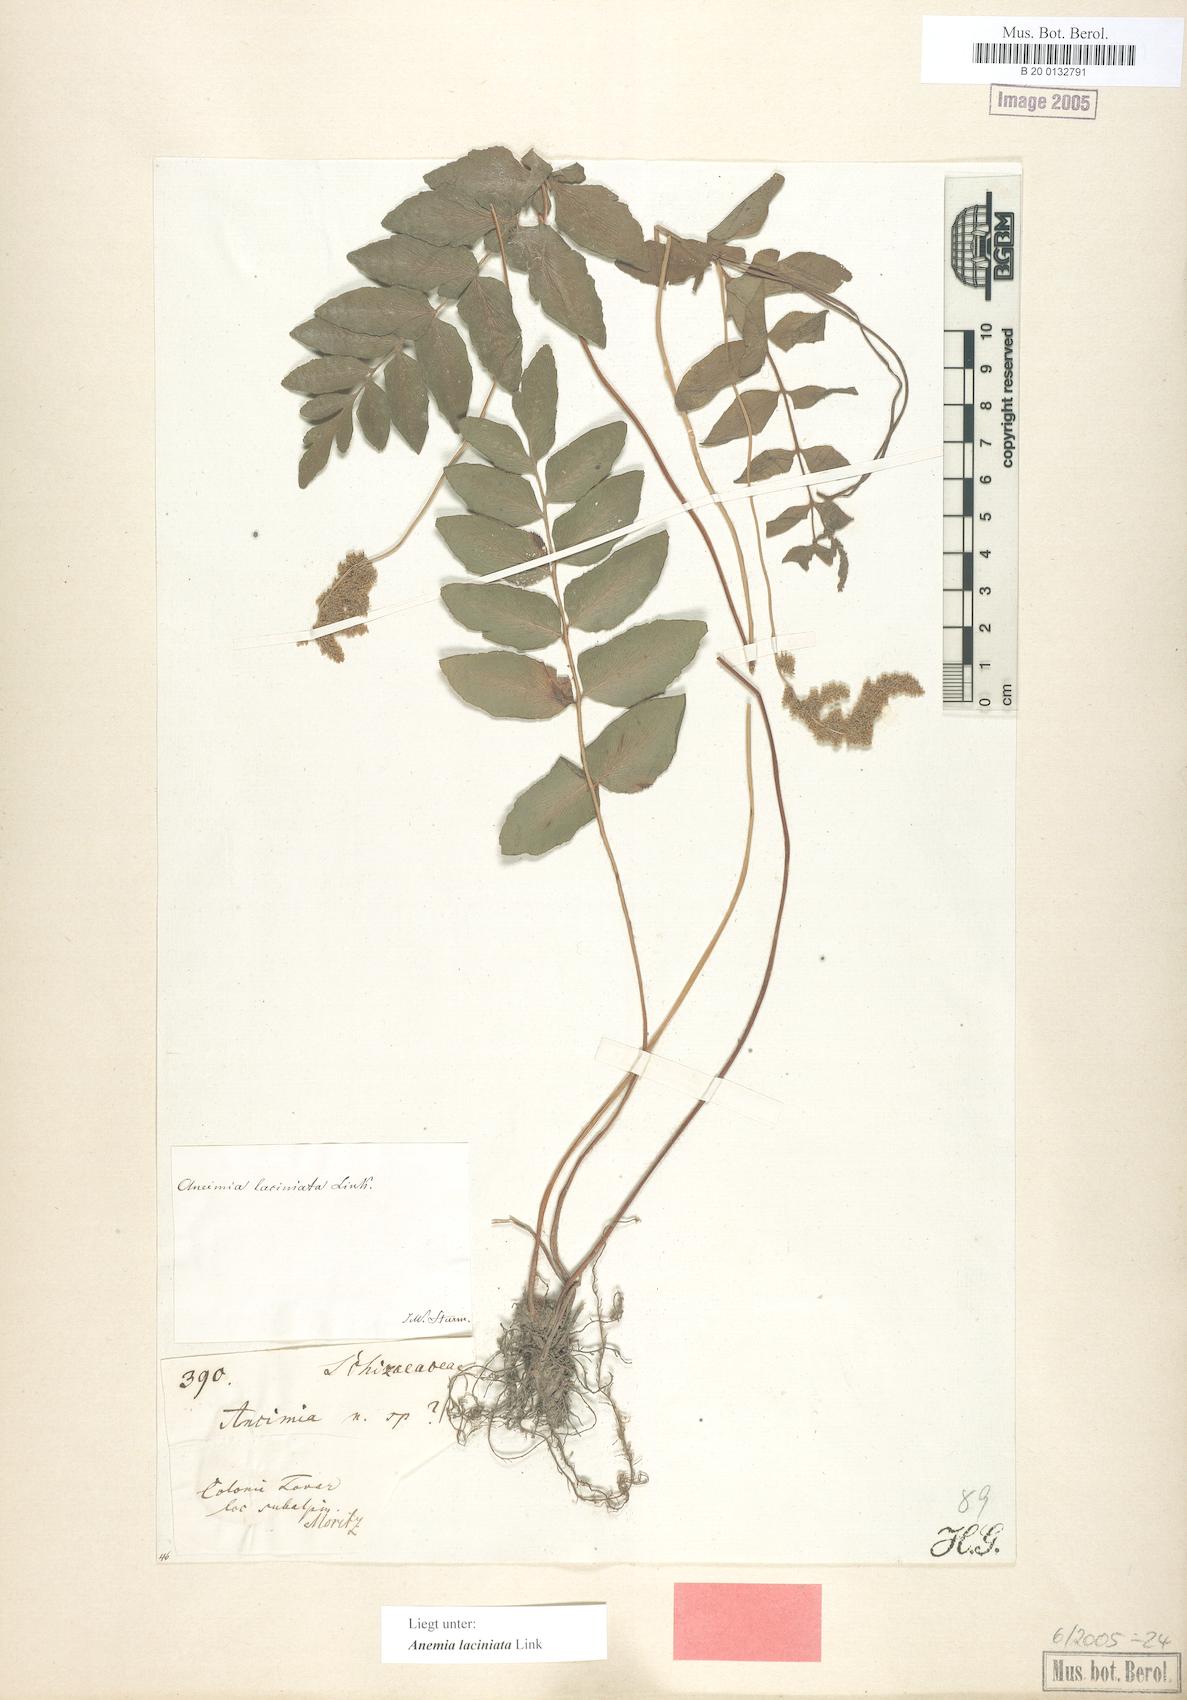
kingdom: Plantae
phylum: Tracheophyta
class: Polypodiopsida
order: Schizaeales
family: Anemiaceae
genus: Anemia
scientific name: Anemia paraphyllitidis
